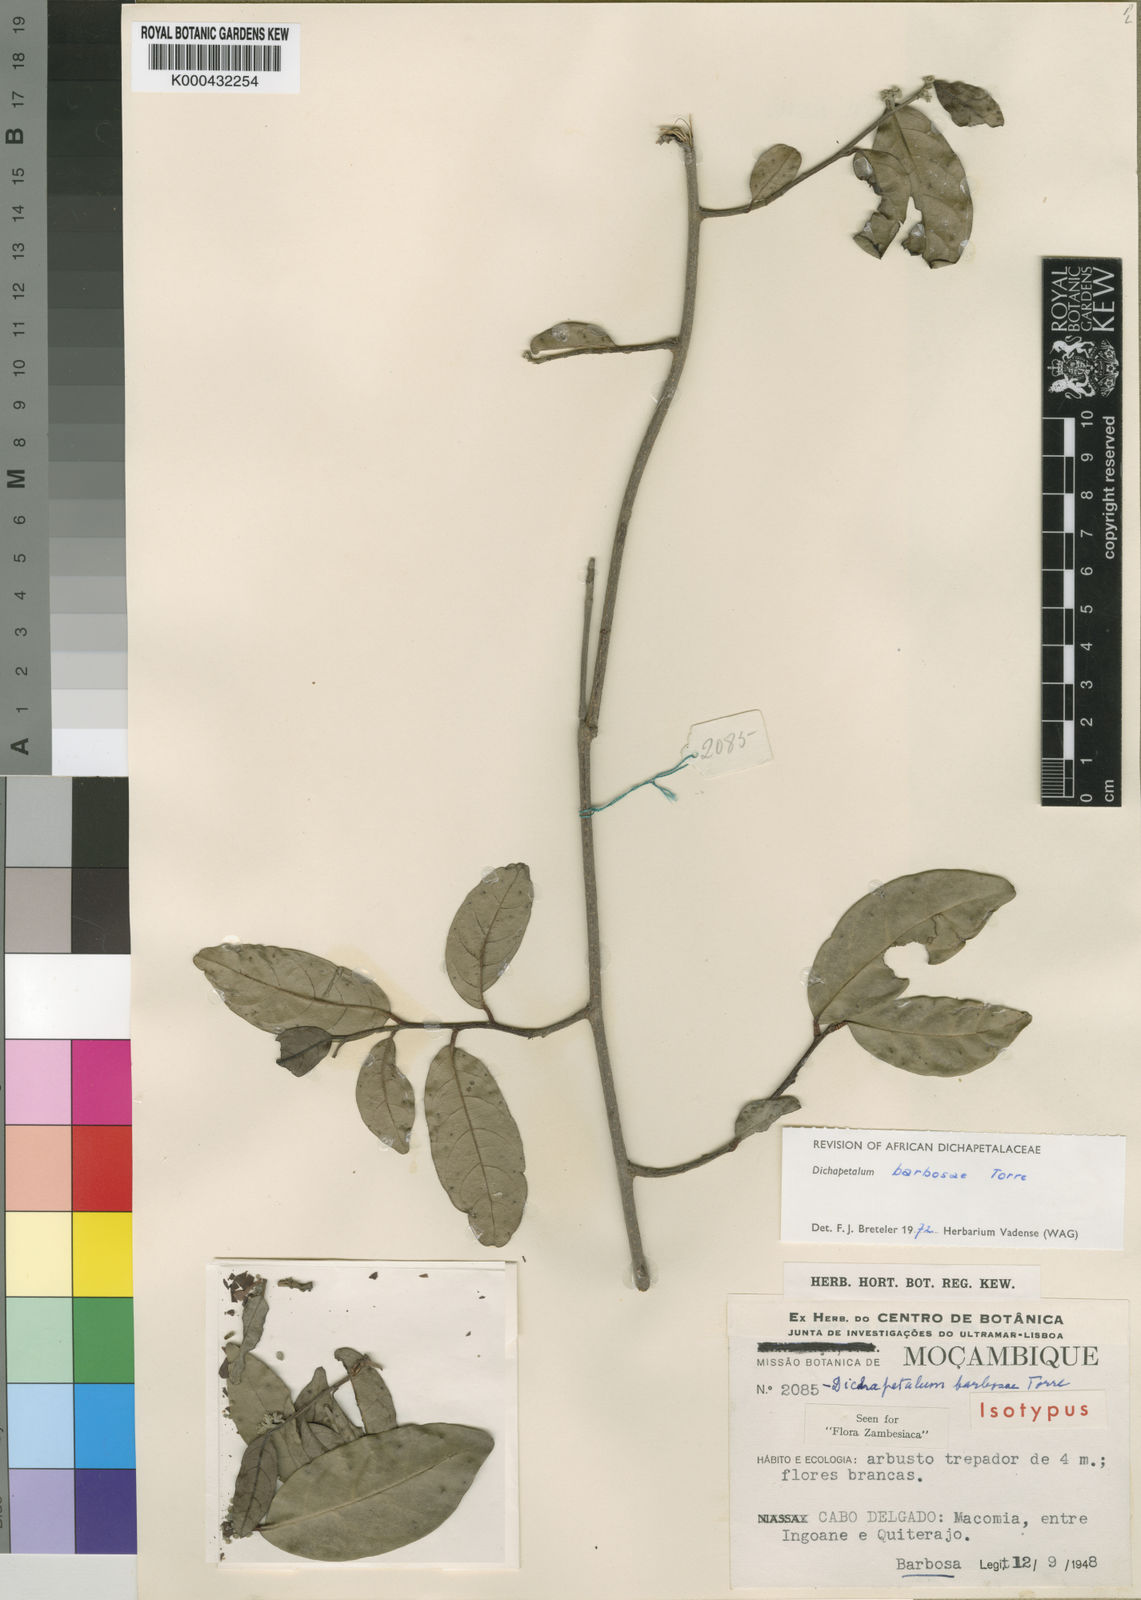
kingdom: Plantae
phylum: Tracheophyta
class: Magnoliopsida
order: Malpighiales
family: Dichapetalaceae
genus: Dichapetalum
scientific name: Dichapetalum barbosae
